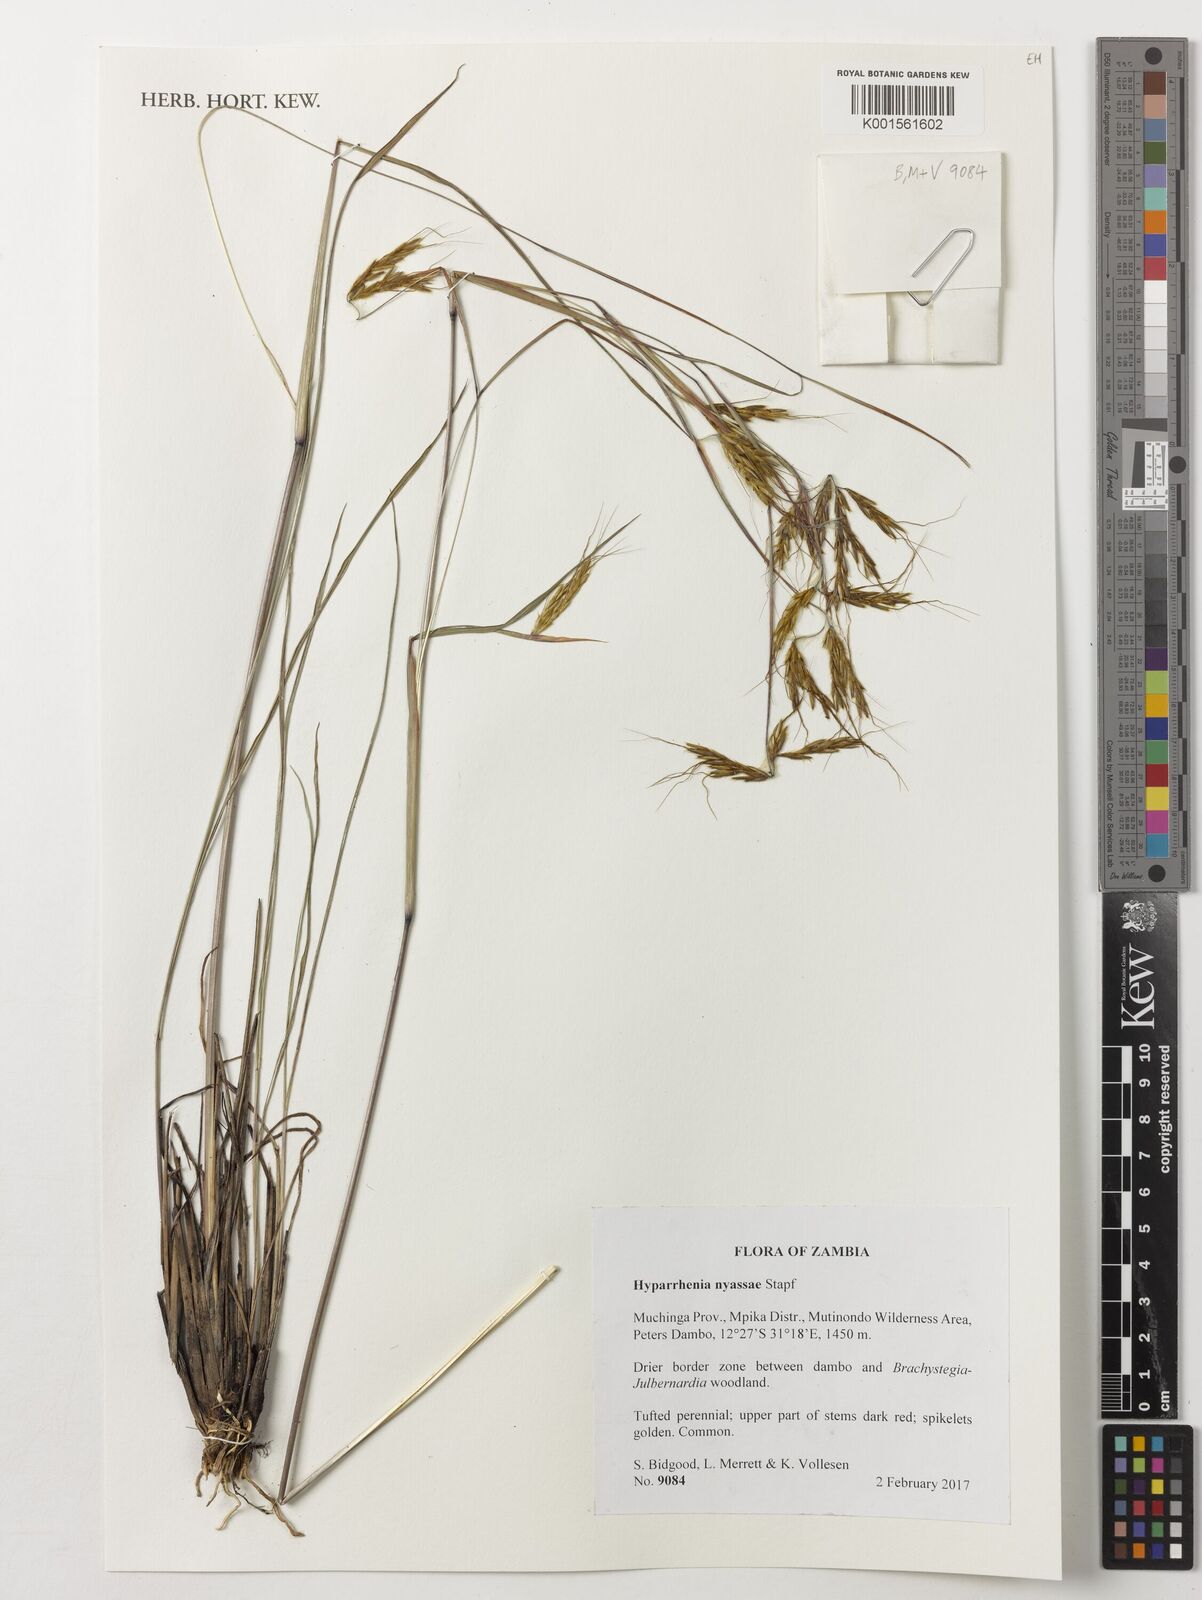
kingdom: Plantae
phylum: Tracheophyta
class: Liliopsida
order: Poales
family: Poaceae
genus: Hyparrhenia
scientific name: Hyparrhenia nyassae
